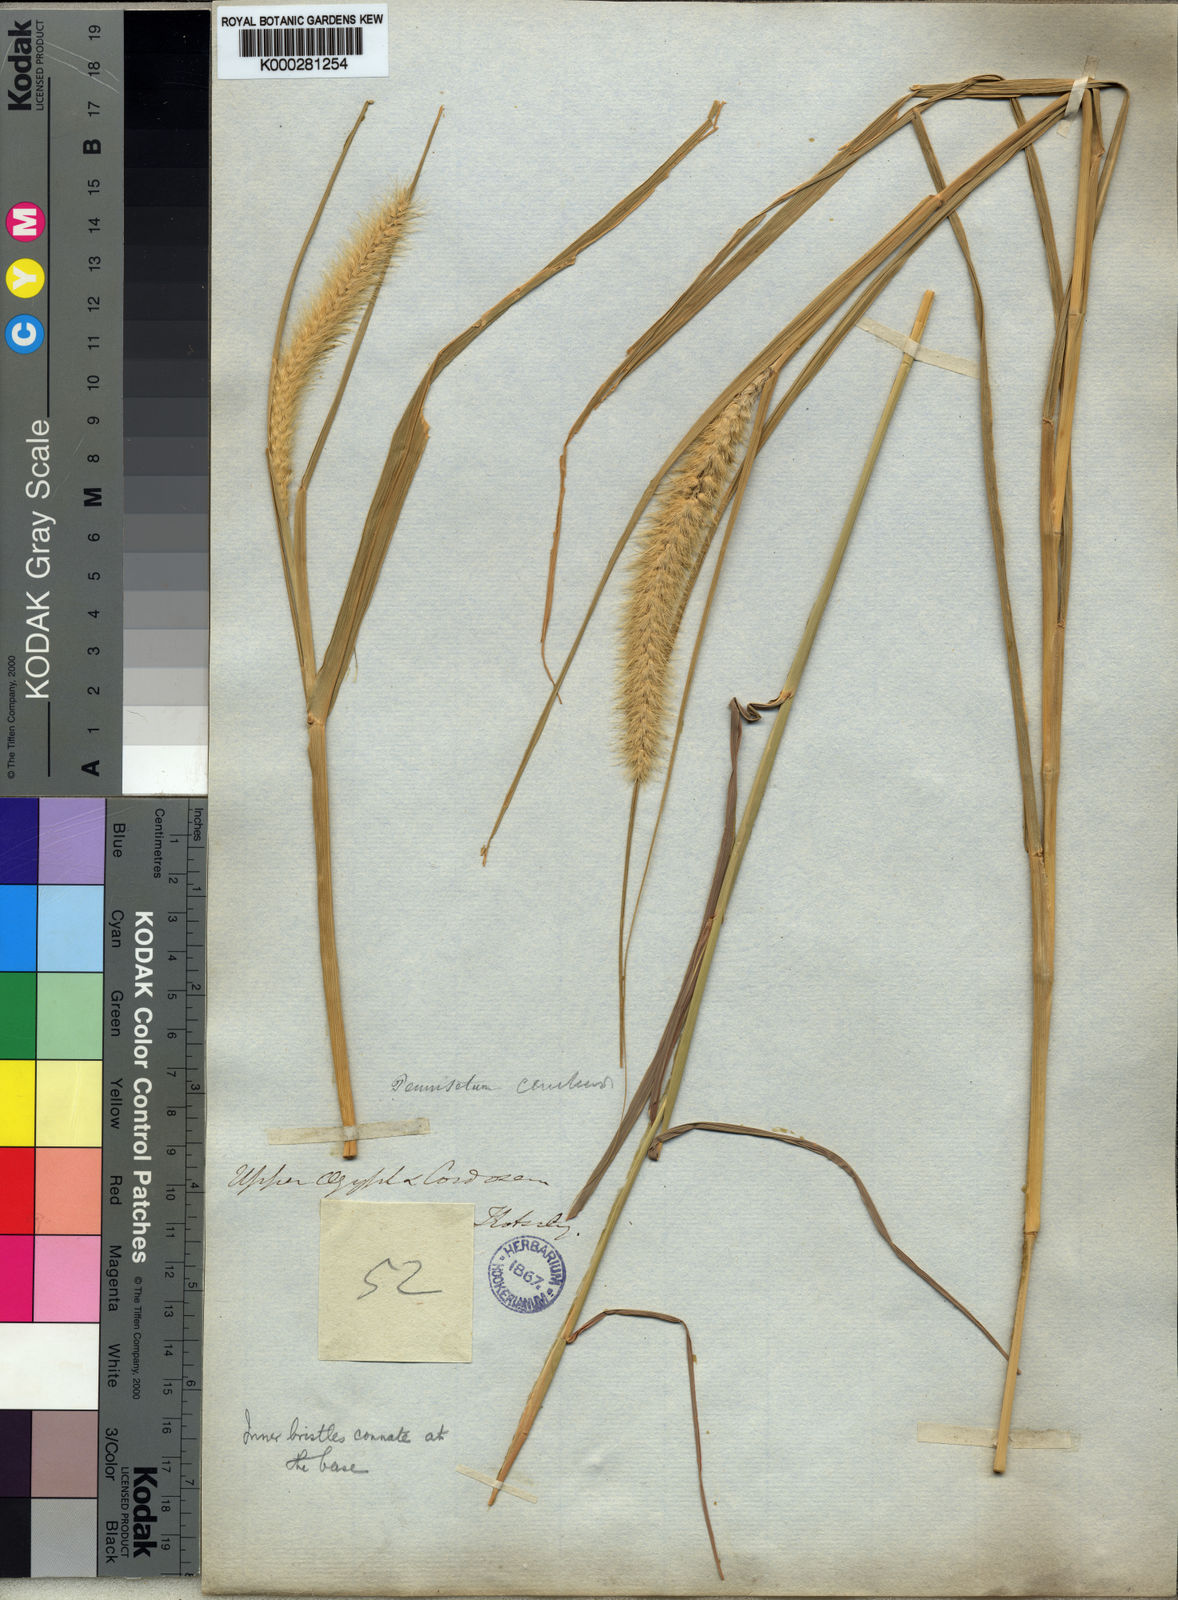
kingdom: Plantae
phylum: Tracheophyta
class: Liliopsida
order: Poales
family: Poaceae
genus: Cenchrus
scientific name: Cenchrus ciliaris
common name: Buffelgrass
